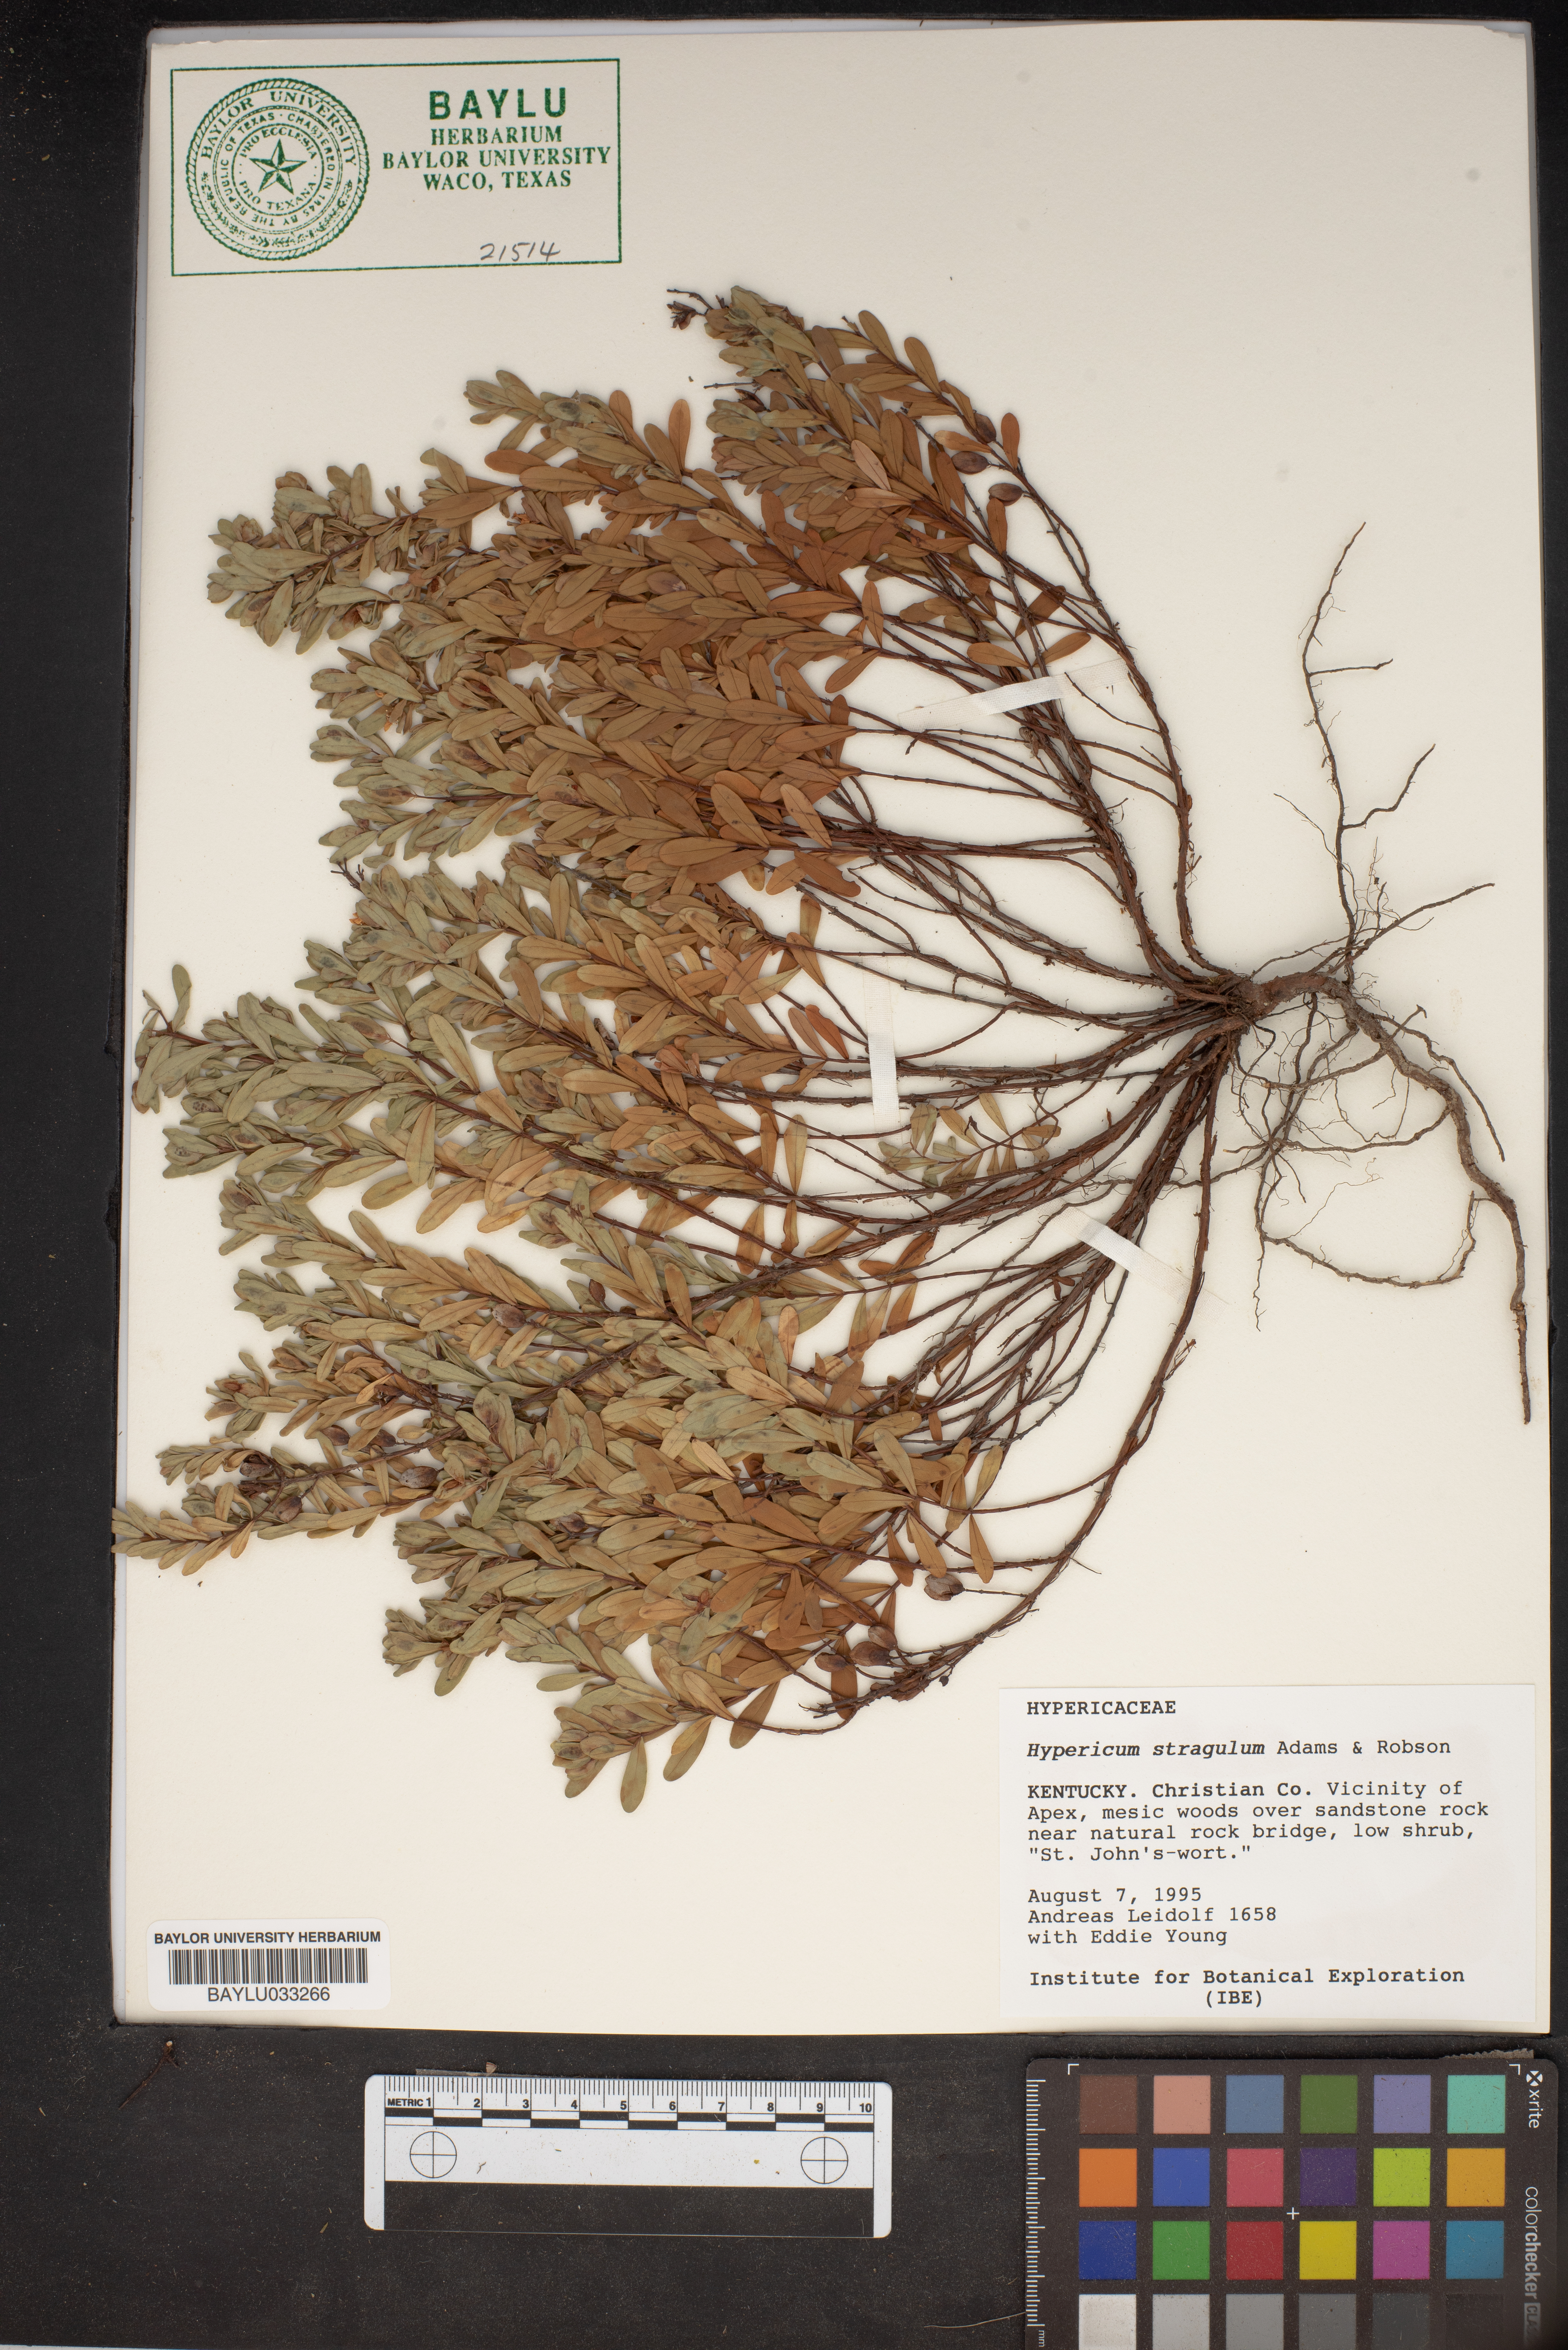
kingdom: Plantae
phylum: Tracheophyta
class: Magnoliopsida
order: Malpighiales
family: Hypericaceae
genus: Hypericum
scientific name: Hypericum hypericoides
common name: St. andrew's cross
